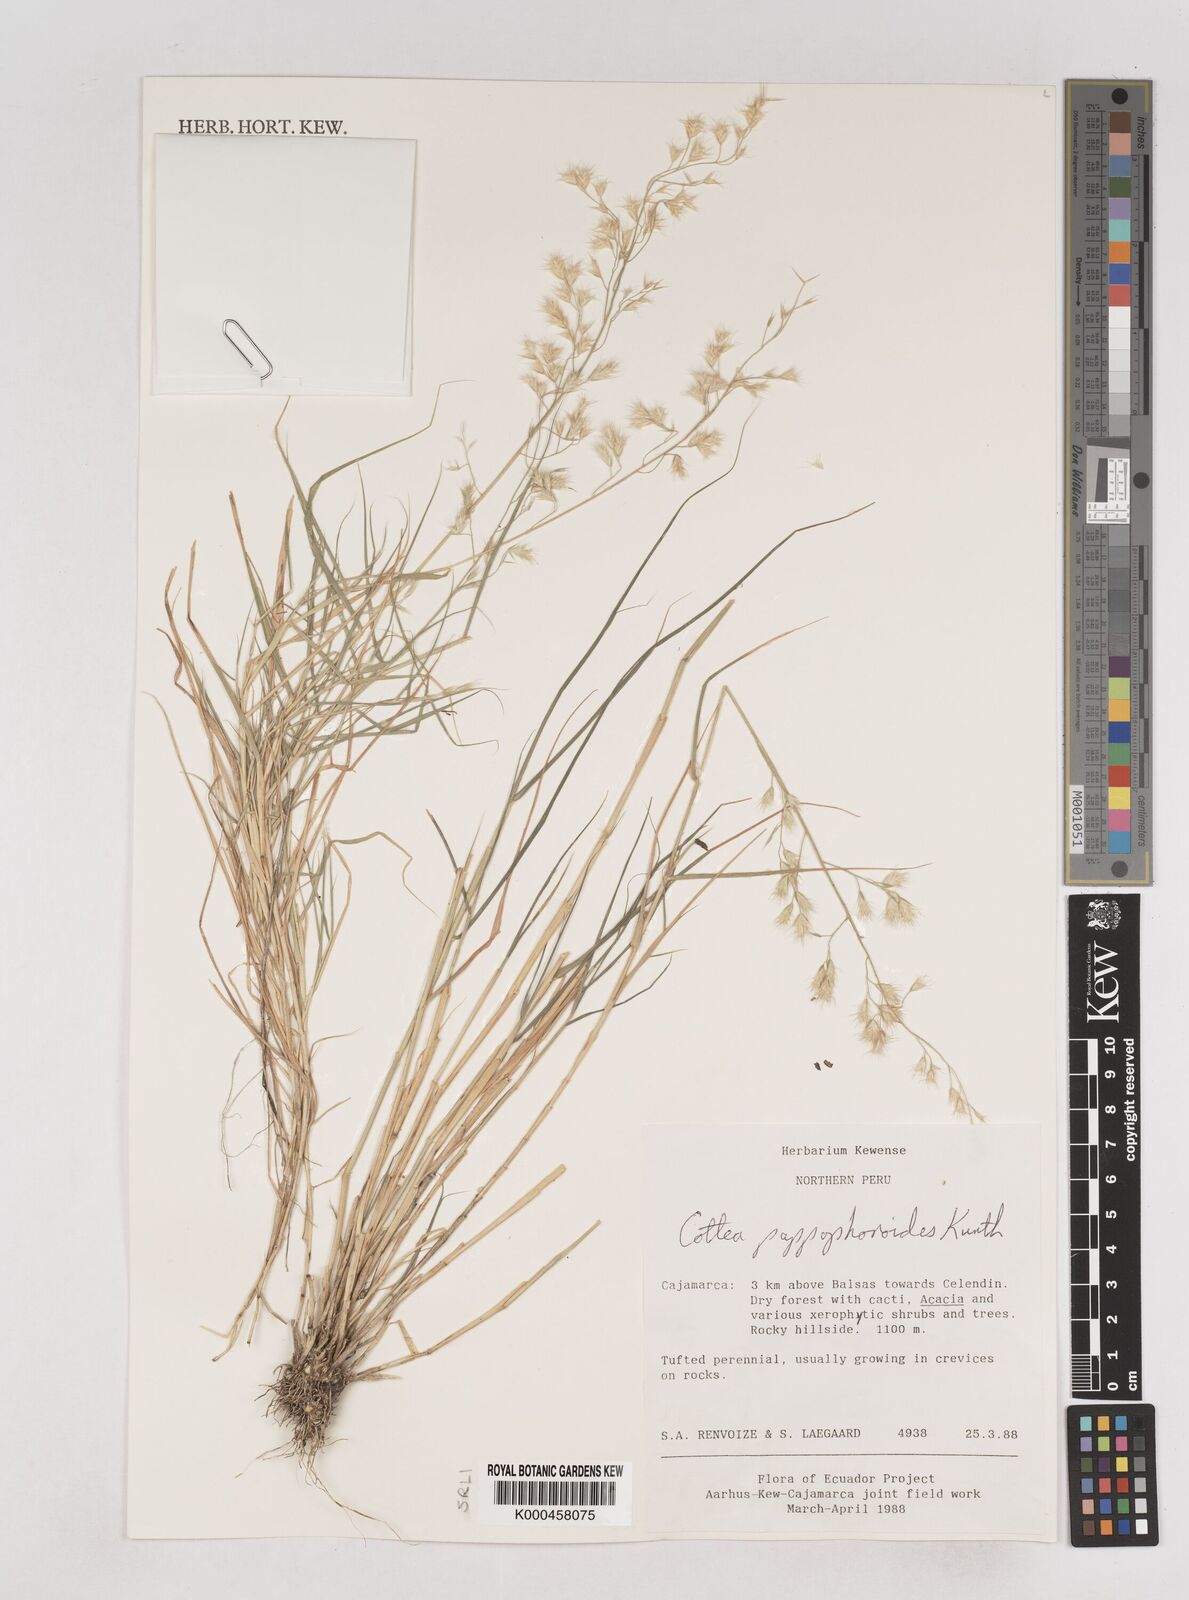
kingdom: Plantae
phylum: Tracheophyta
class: Liliopsida
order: Poales
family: Poaceae
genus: Cottea
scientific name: Cottea
